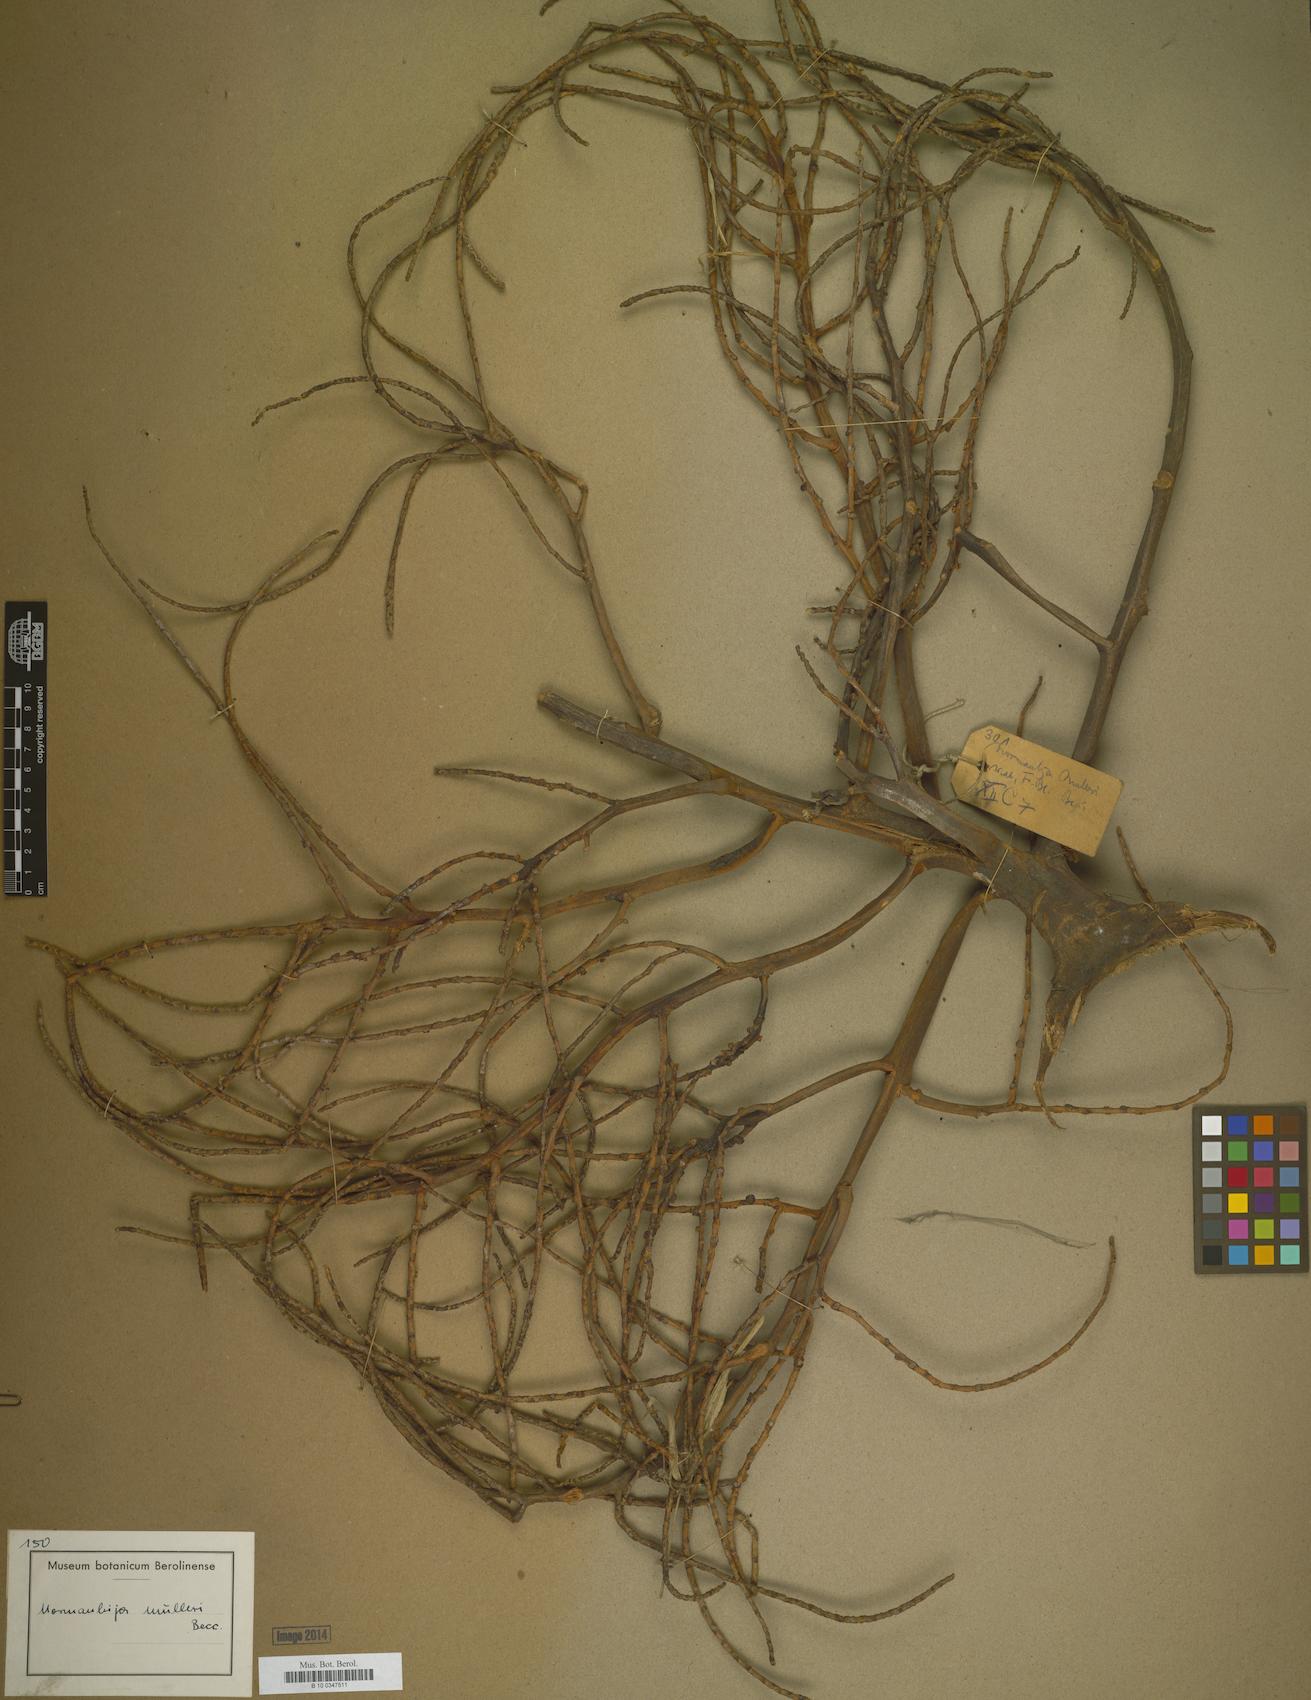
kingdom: Plantae
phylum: Tracheophyta
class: Liliopsida
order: Arecales
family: Arecaceae
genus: Normanbya
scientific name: Normanbya normanbyi
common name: Black palm
